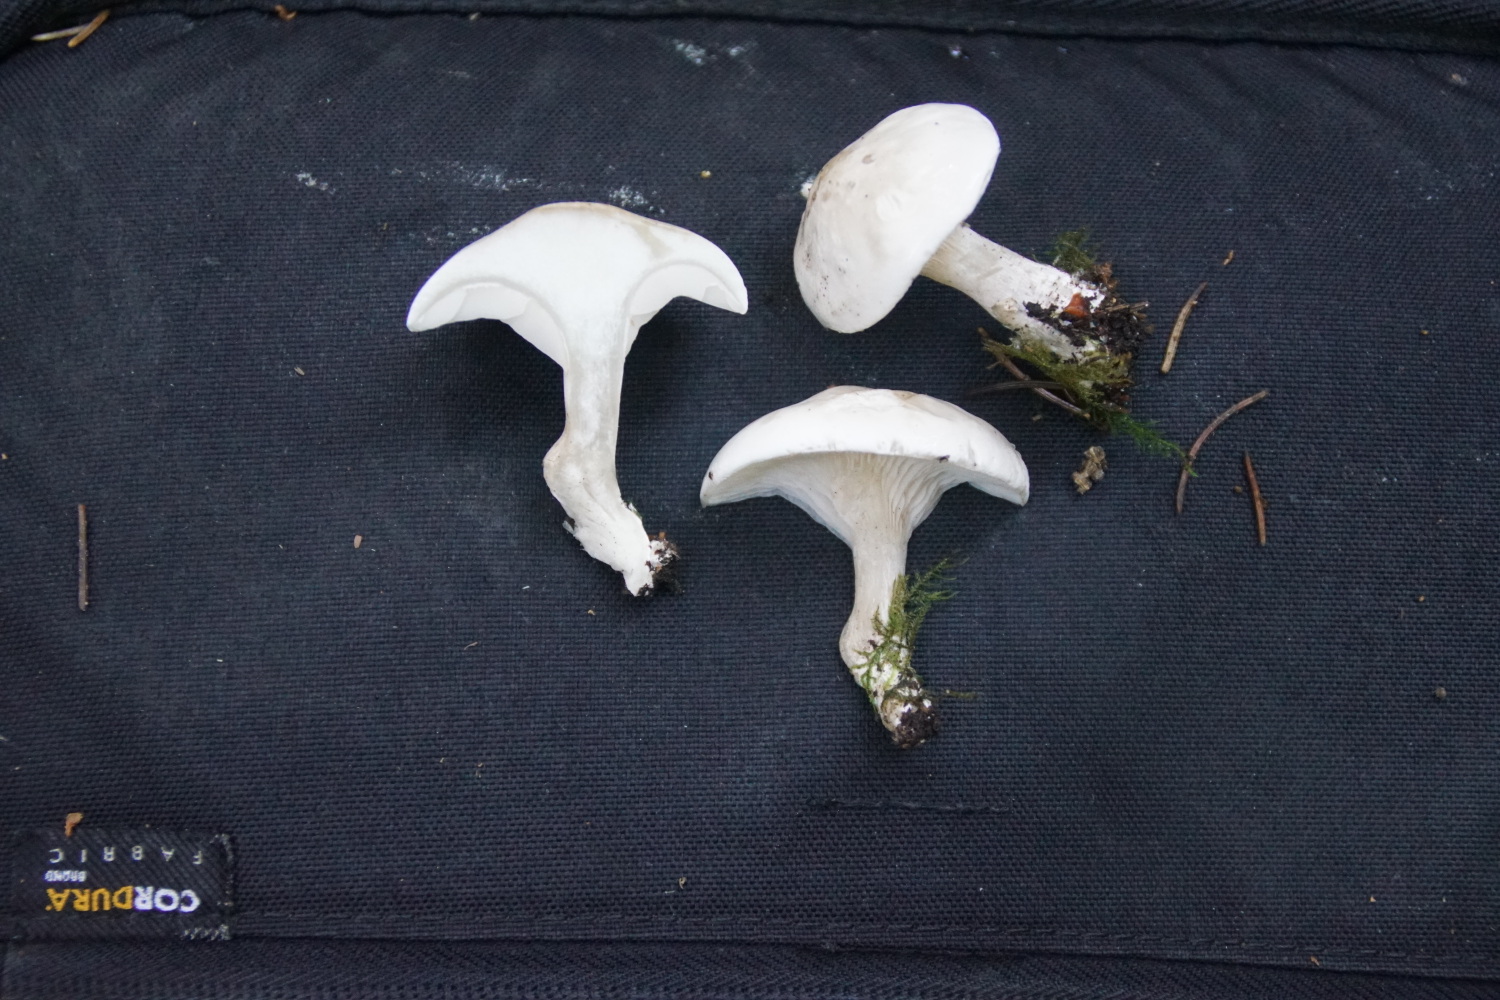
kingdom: Fungi
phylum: Basidiomycota
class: Agaricomycetes
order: Agaricales
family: Entolomataceae
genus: Clitopilus
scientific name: Clitopilus prunulus
